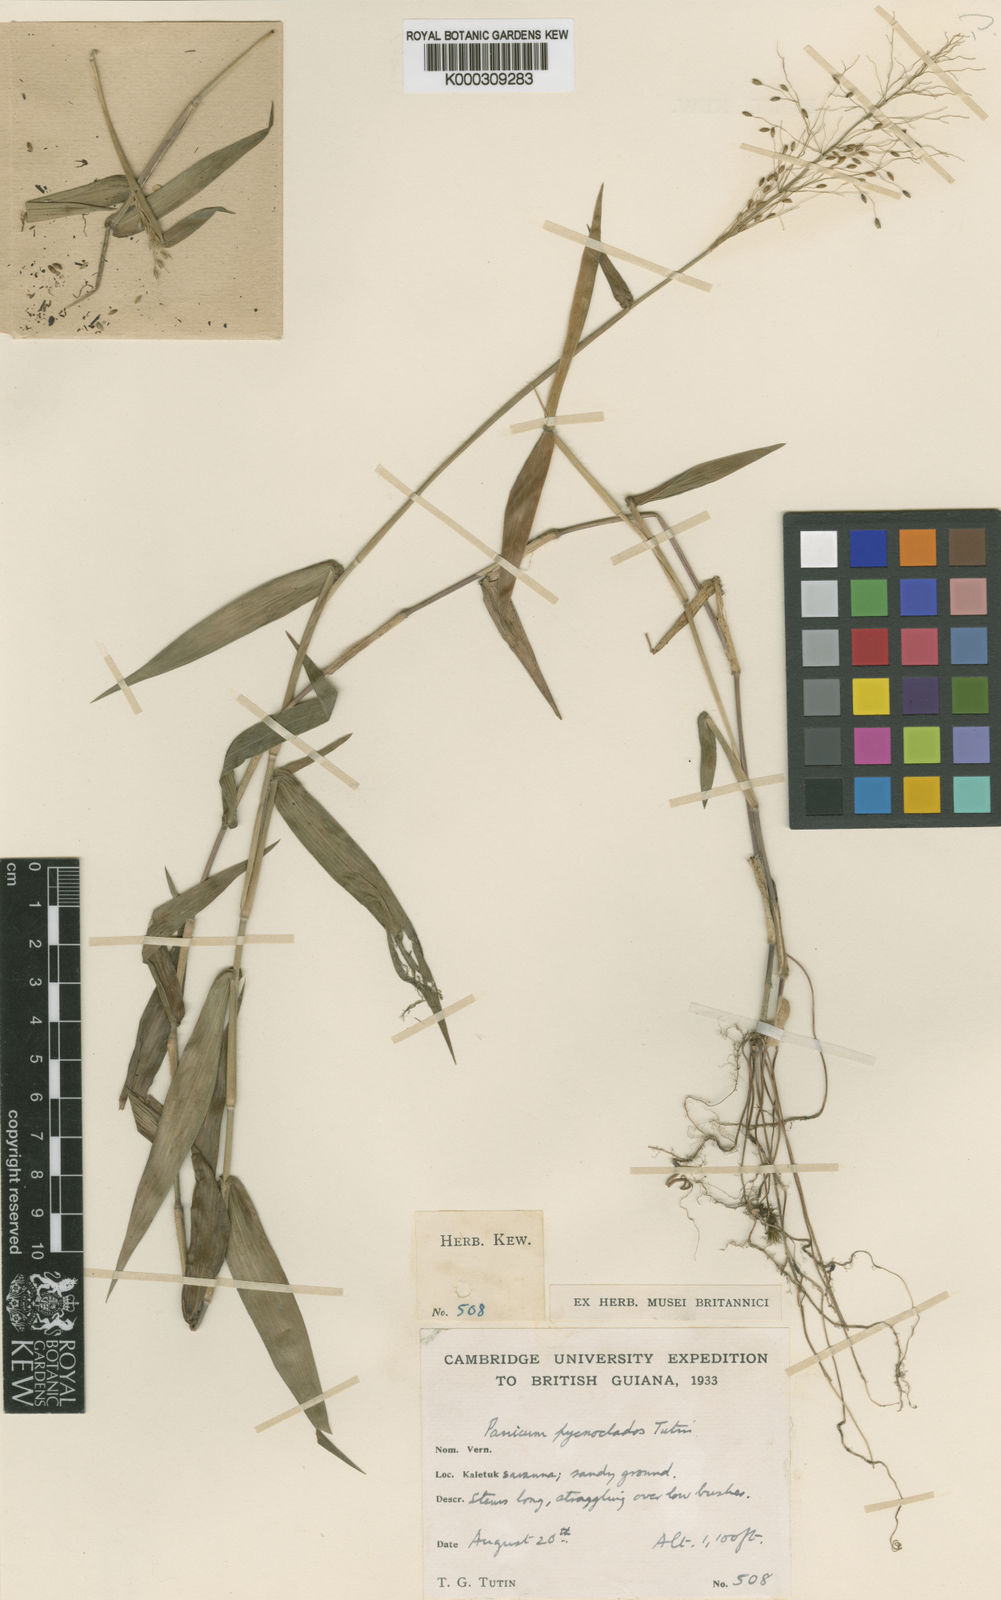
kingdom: Plantae
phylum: Tracheophyta
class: Liliopsida
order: Poales
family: Poaceae
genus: Dichanthelium
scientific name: Dichanthelium pycnoclados
